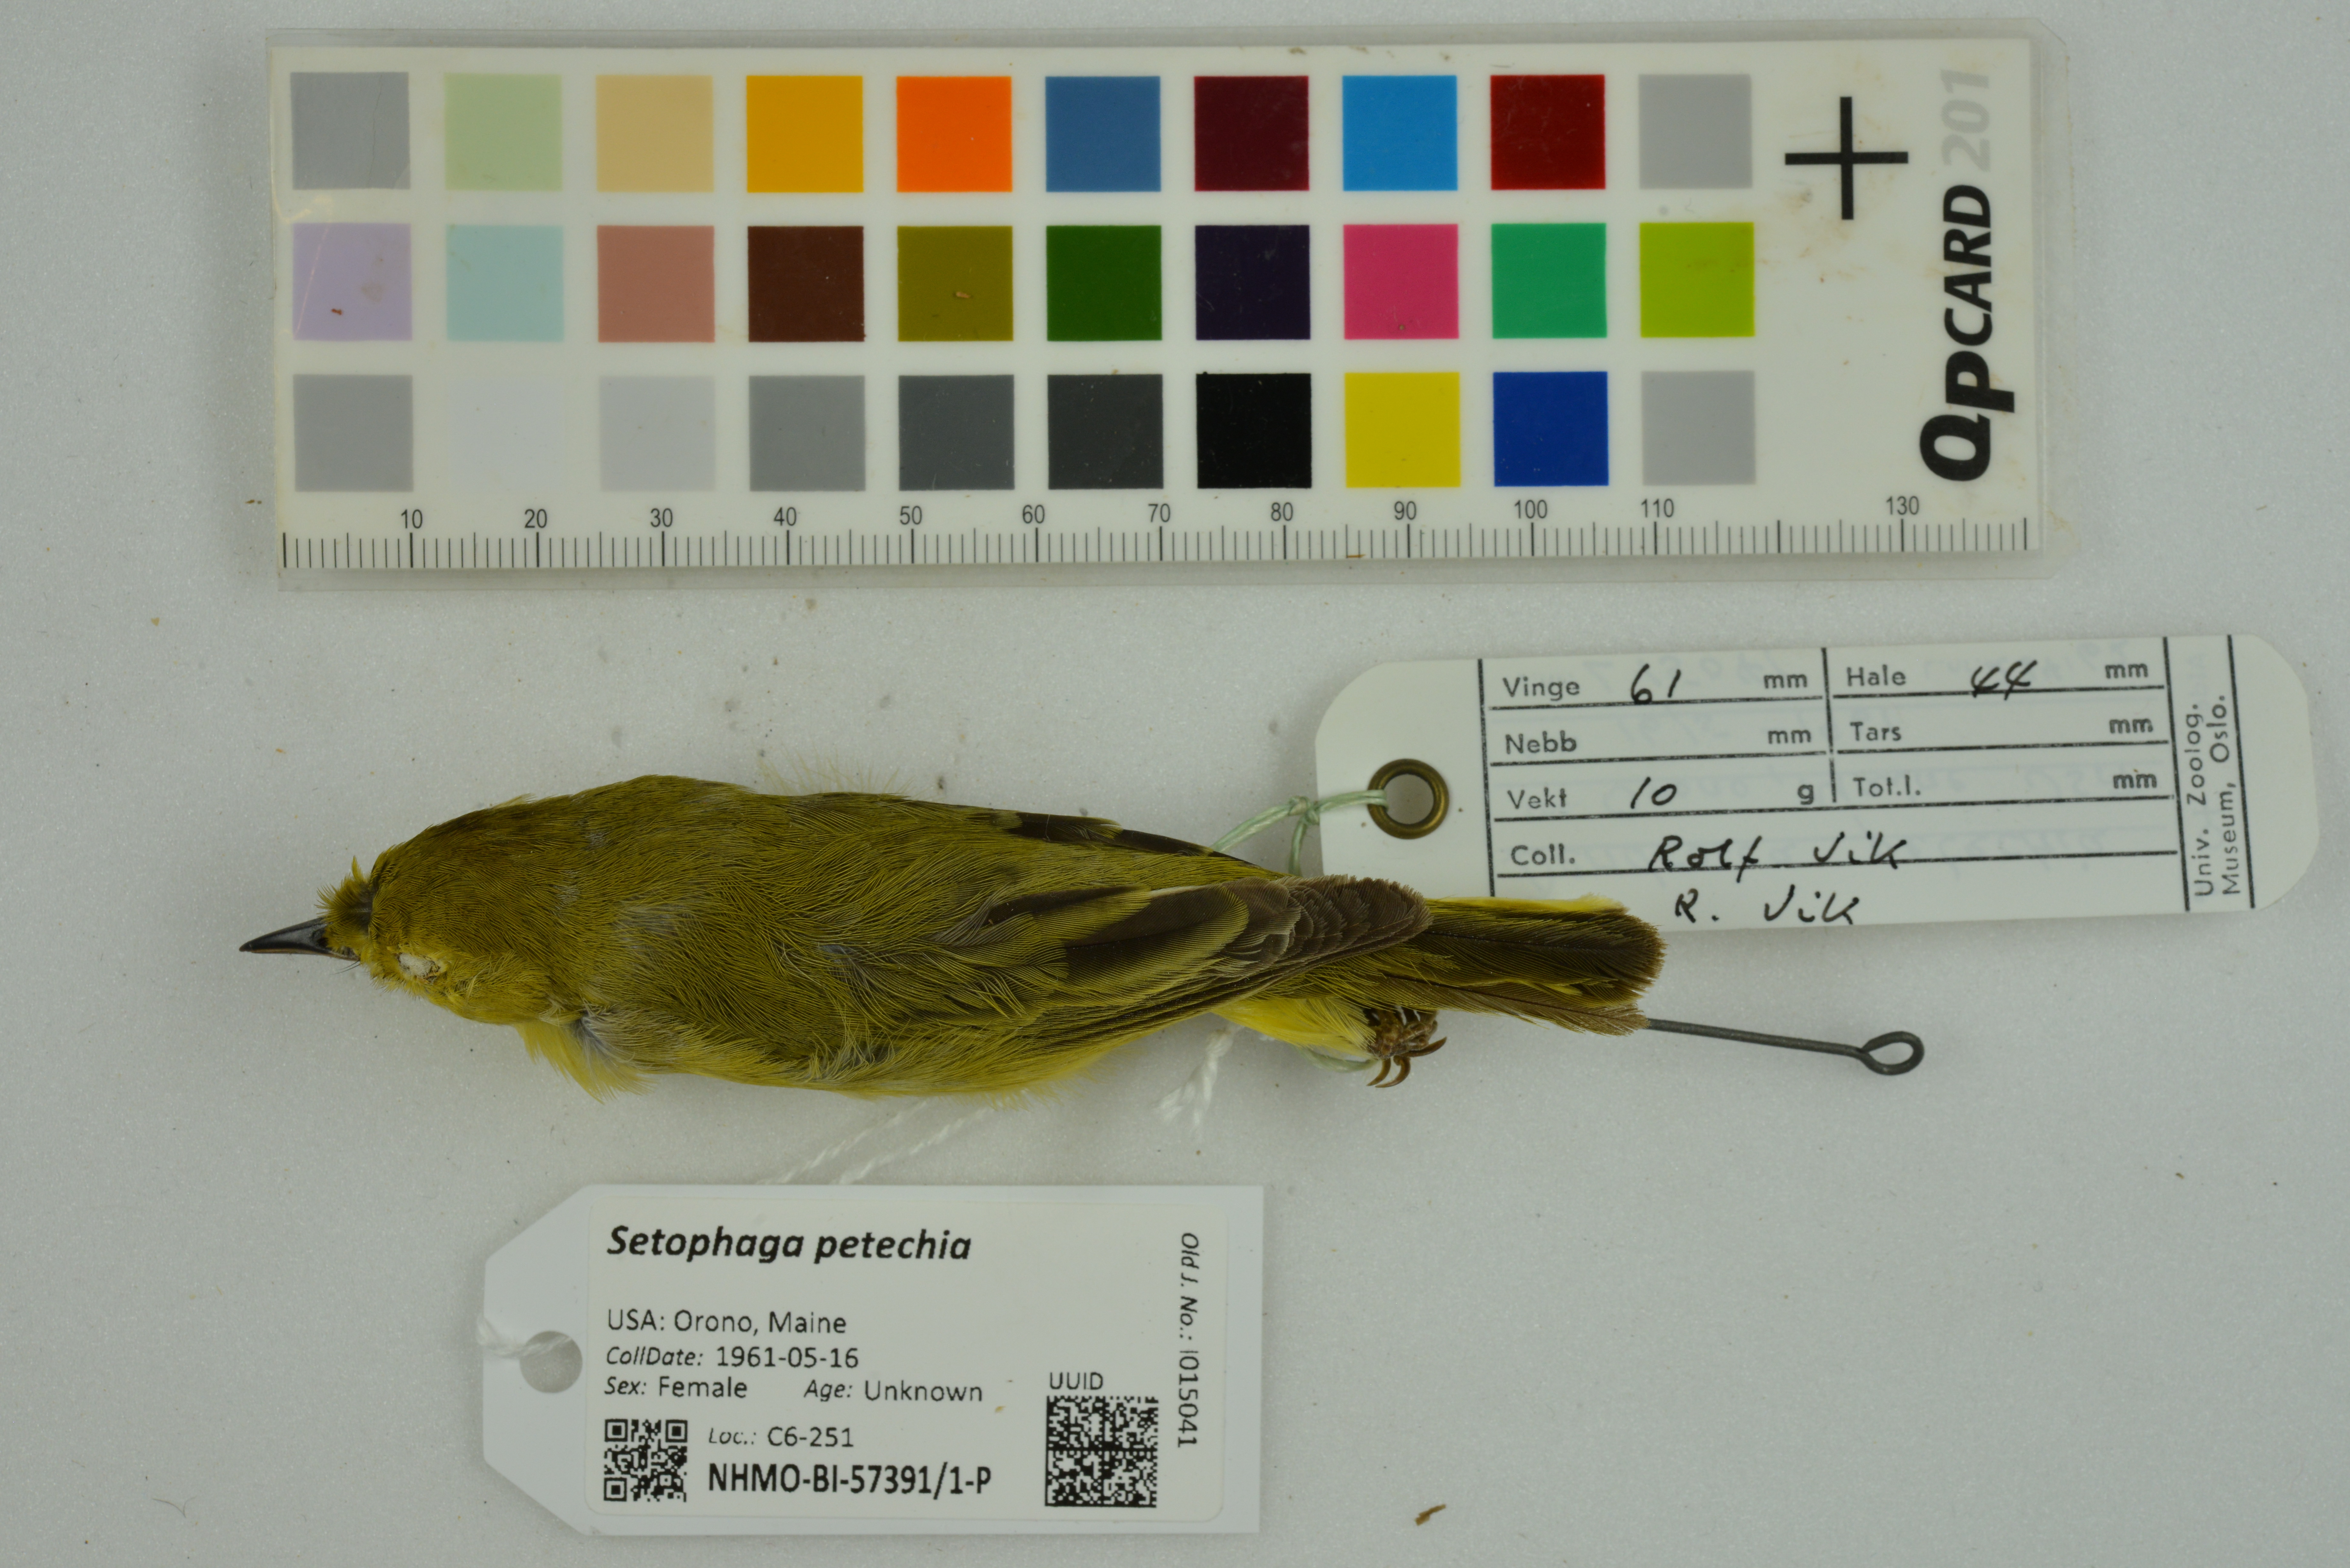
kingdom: Animalia
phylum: Chordata
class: Aves
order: Passeriformes
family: Parulidae
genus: Setophaga
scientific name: Setophaga petechia
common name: Yellow warbler
